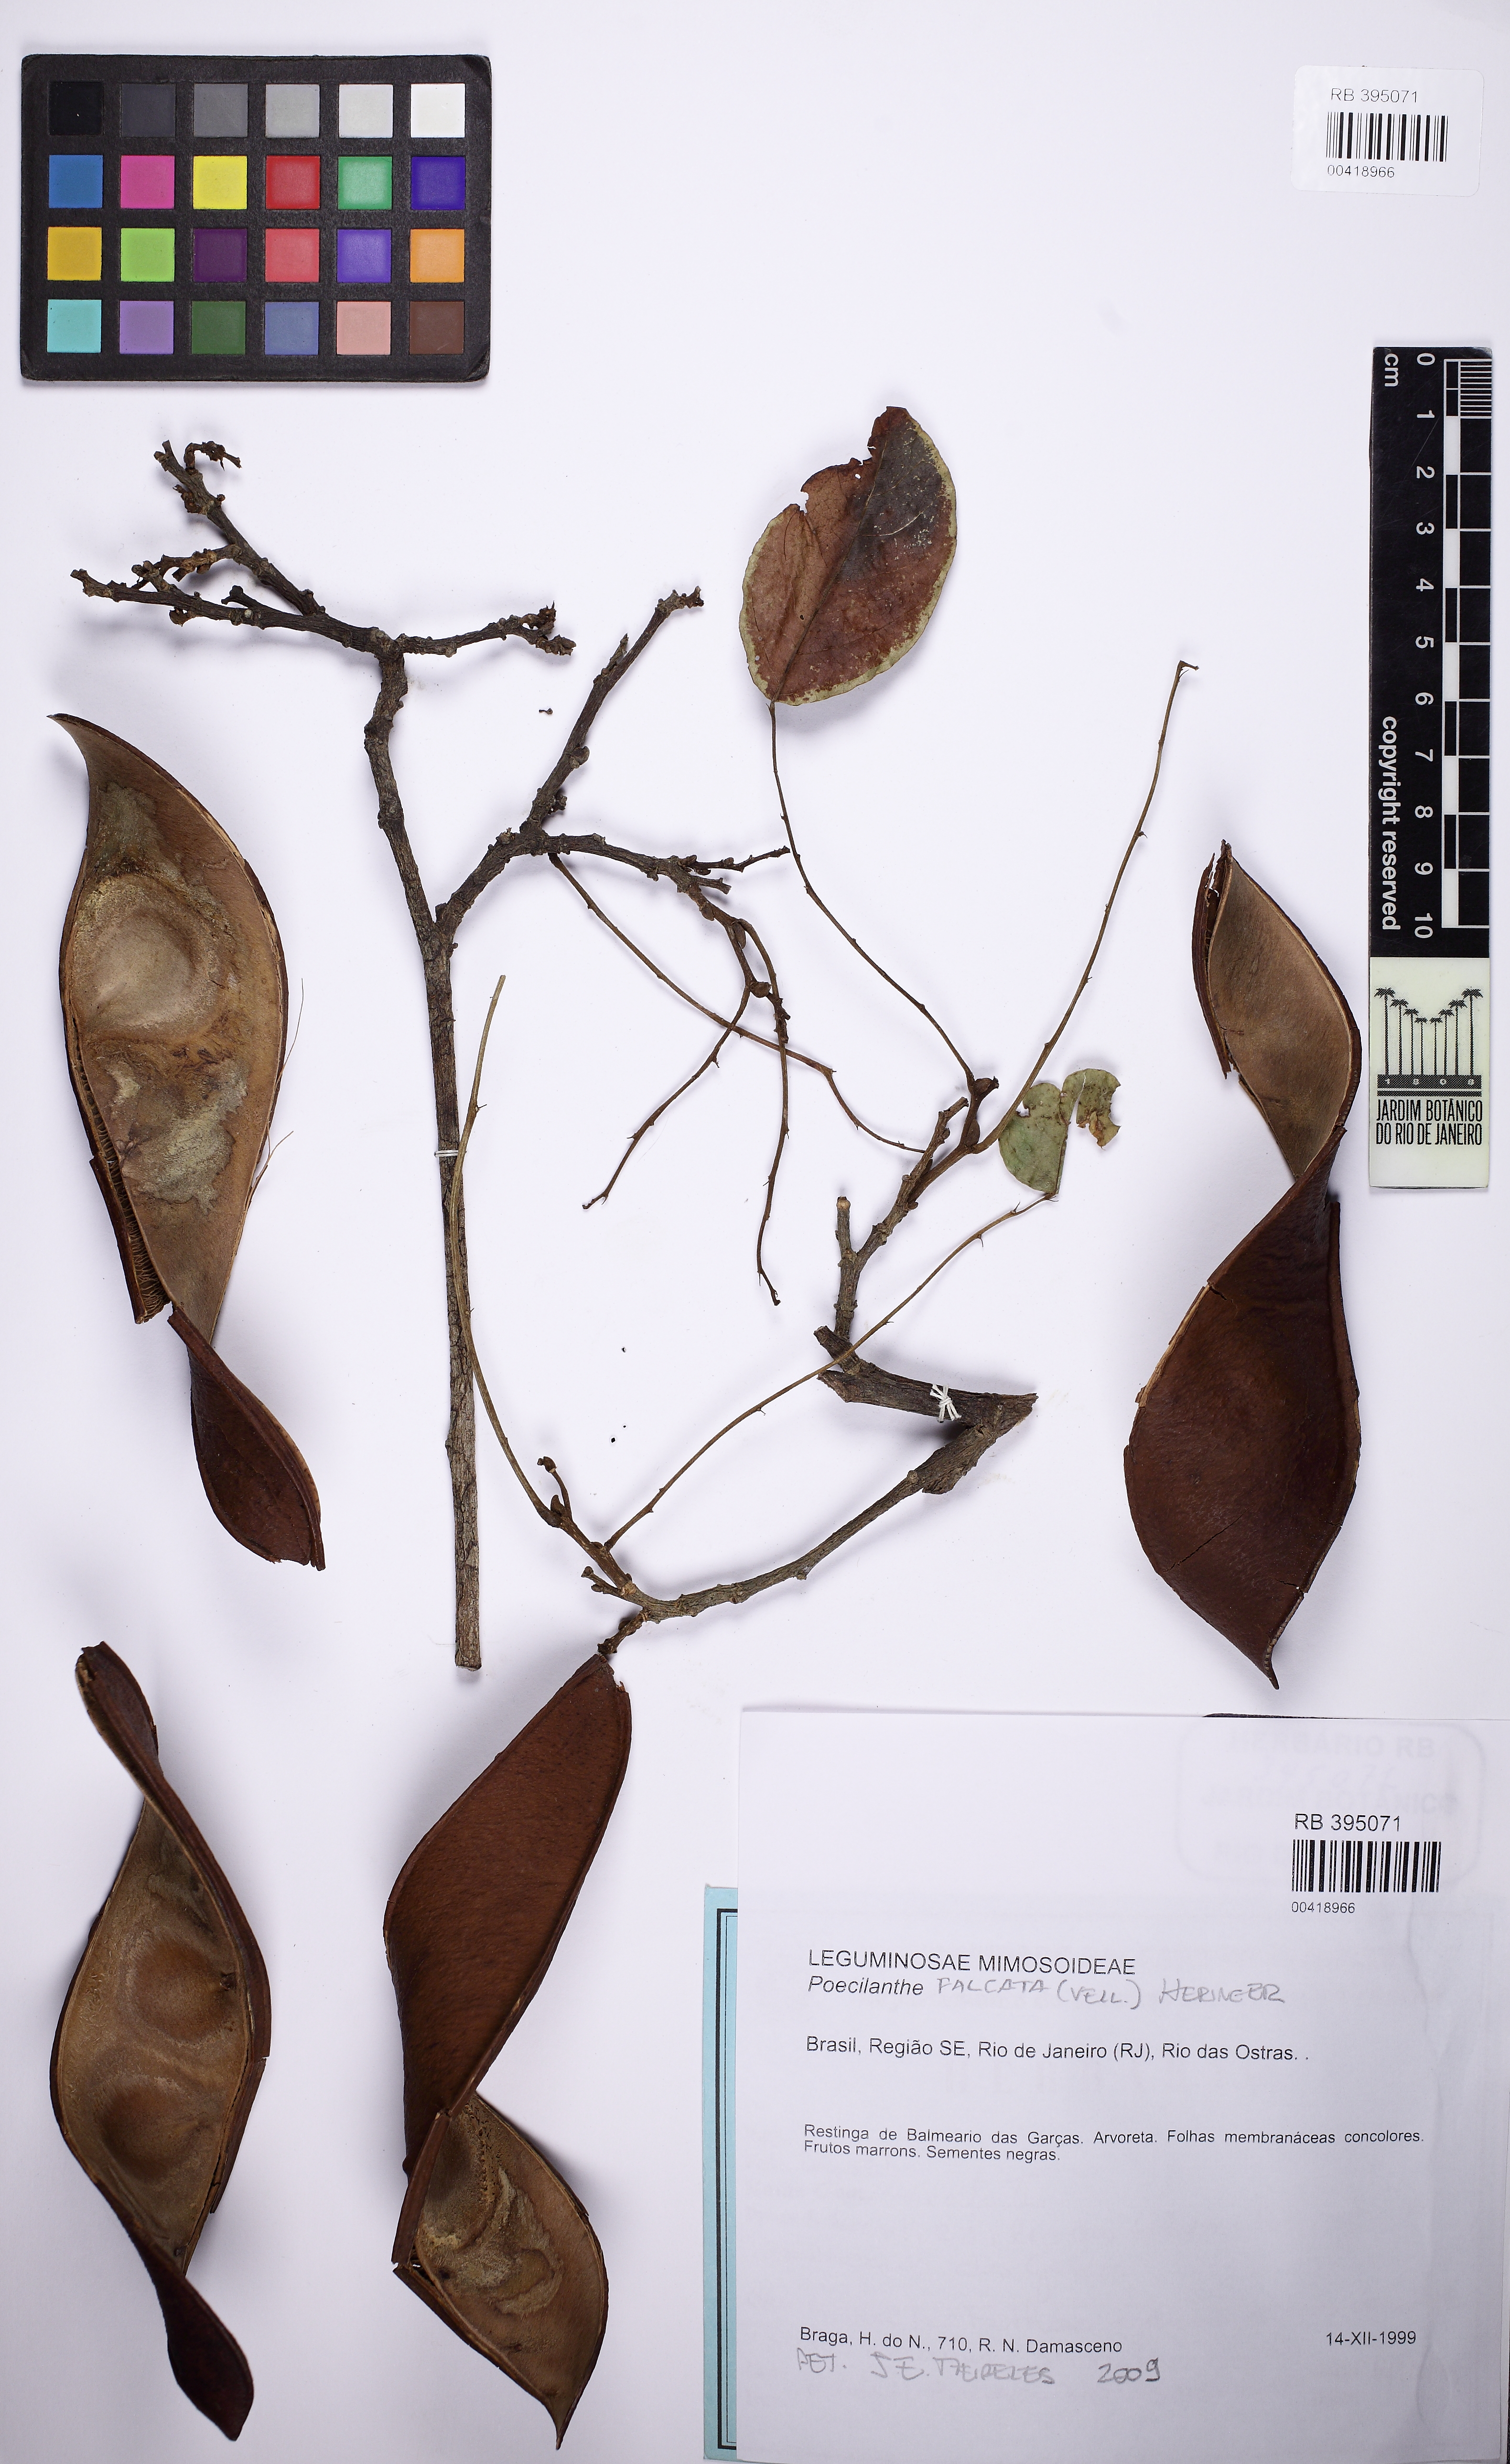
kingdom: Plantae
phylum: Tracheophyta
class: Magnoliopsida
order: Fabales
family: Fabaceae
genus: Poecilanthe
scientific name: Poecilanthe falcata
